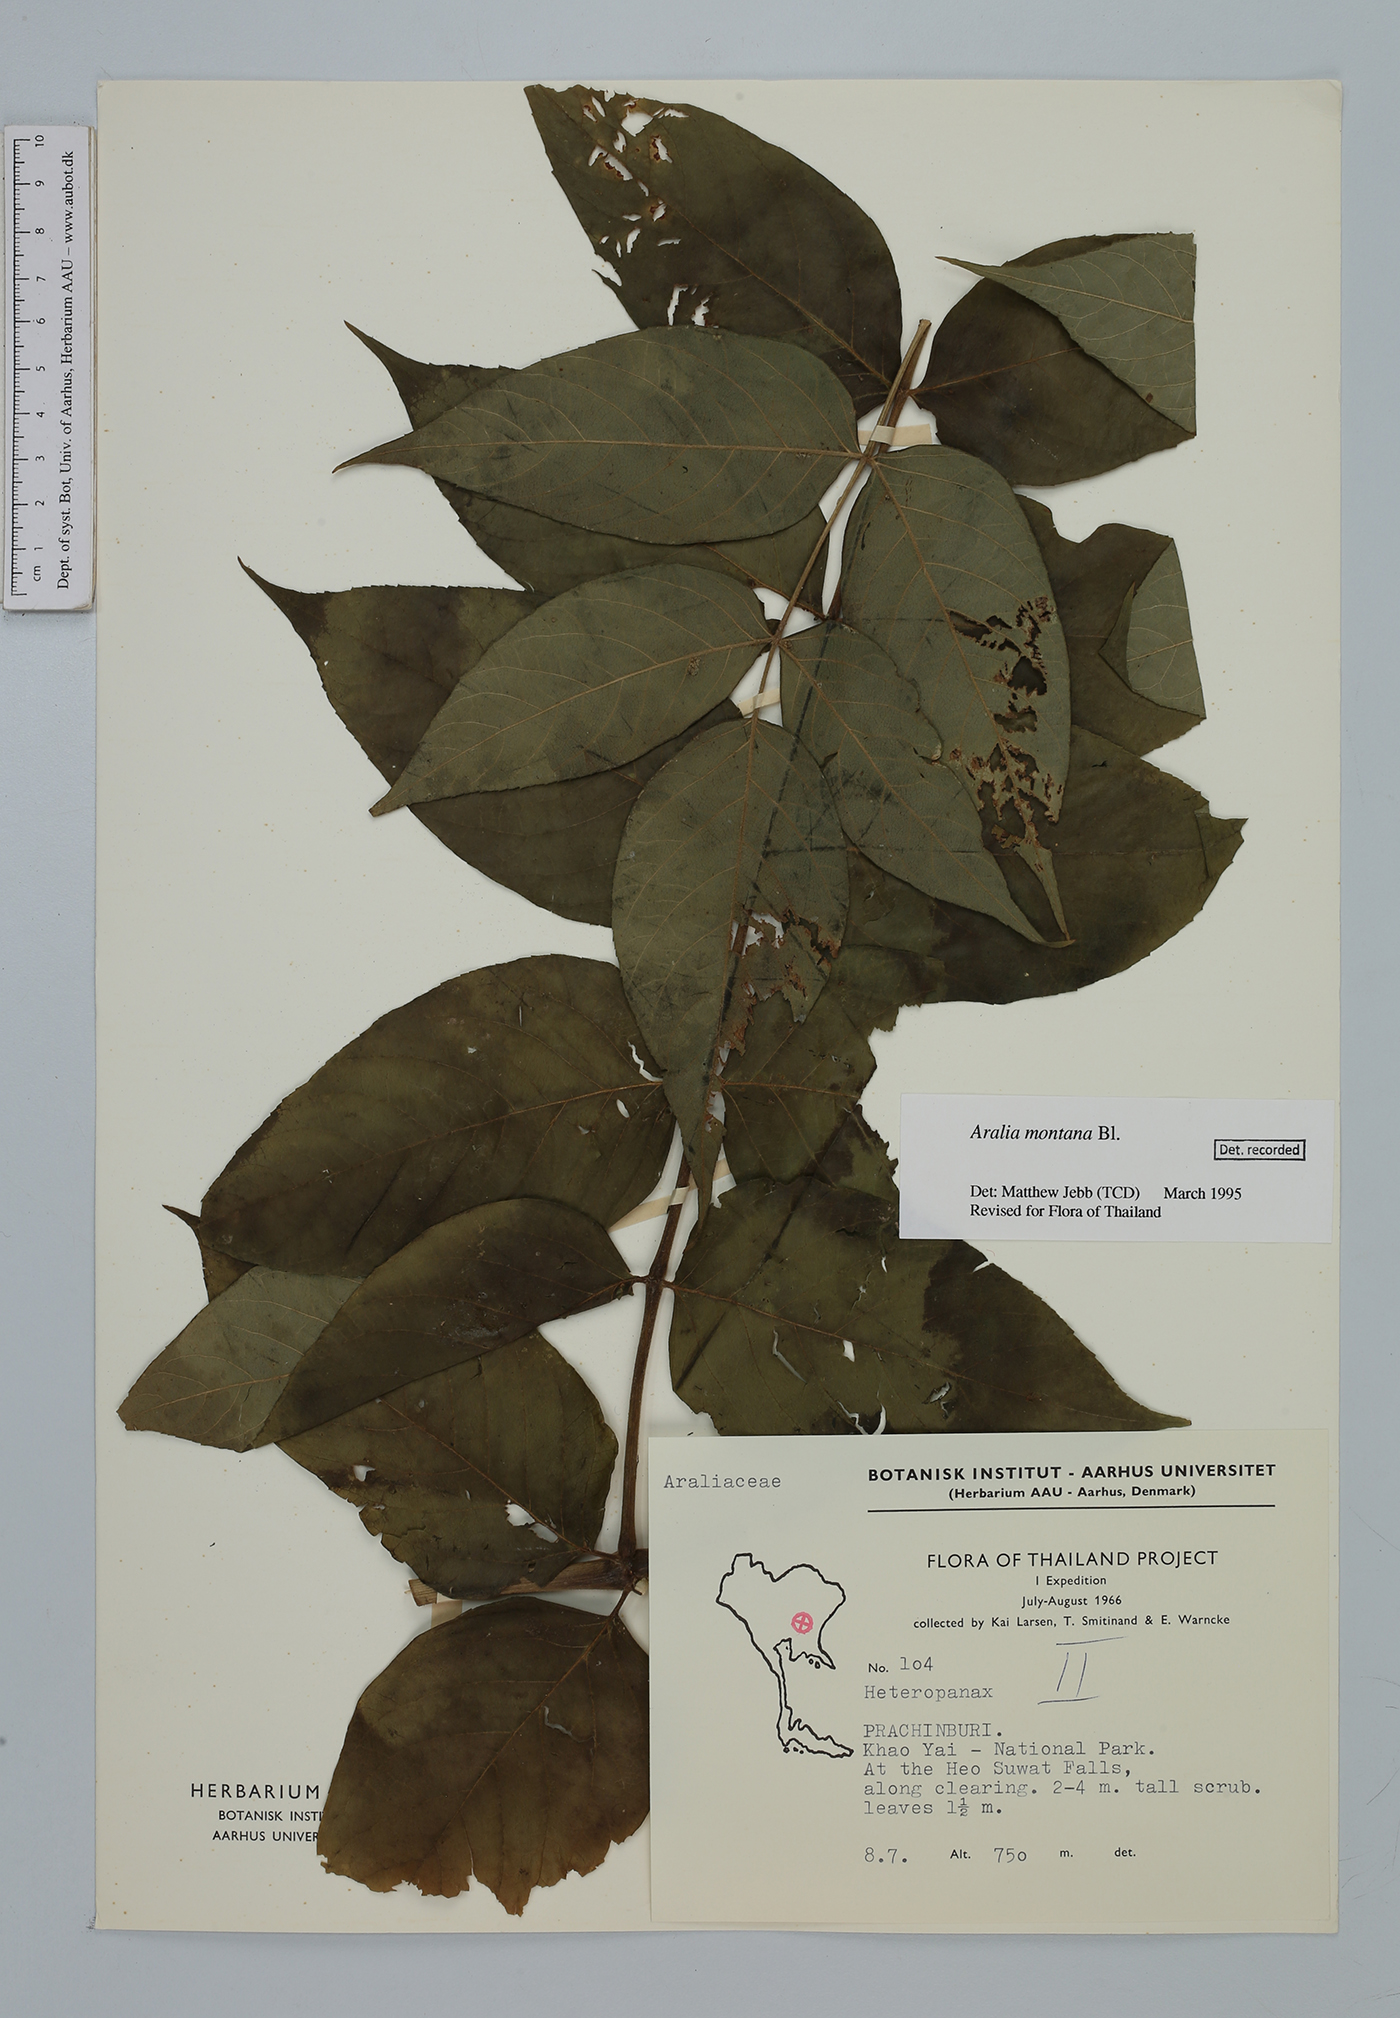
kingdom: Plantae
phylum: Tracheophyta
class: Magnoliopsida
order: Apiales
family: Araliaceae
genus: Heteropanax
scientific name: Heteropanax
